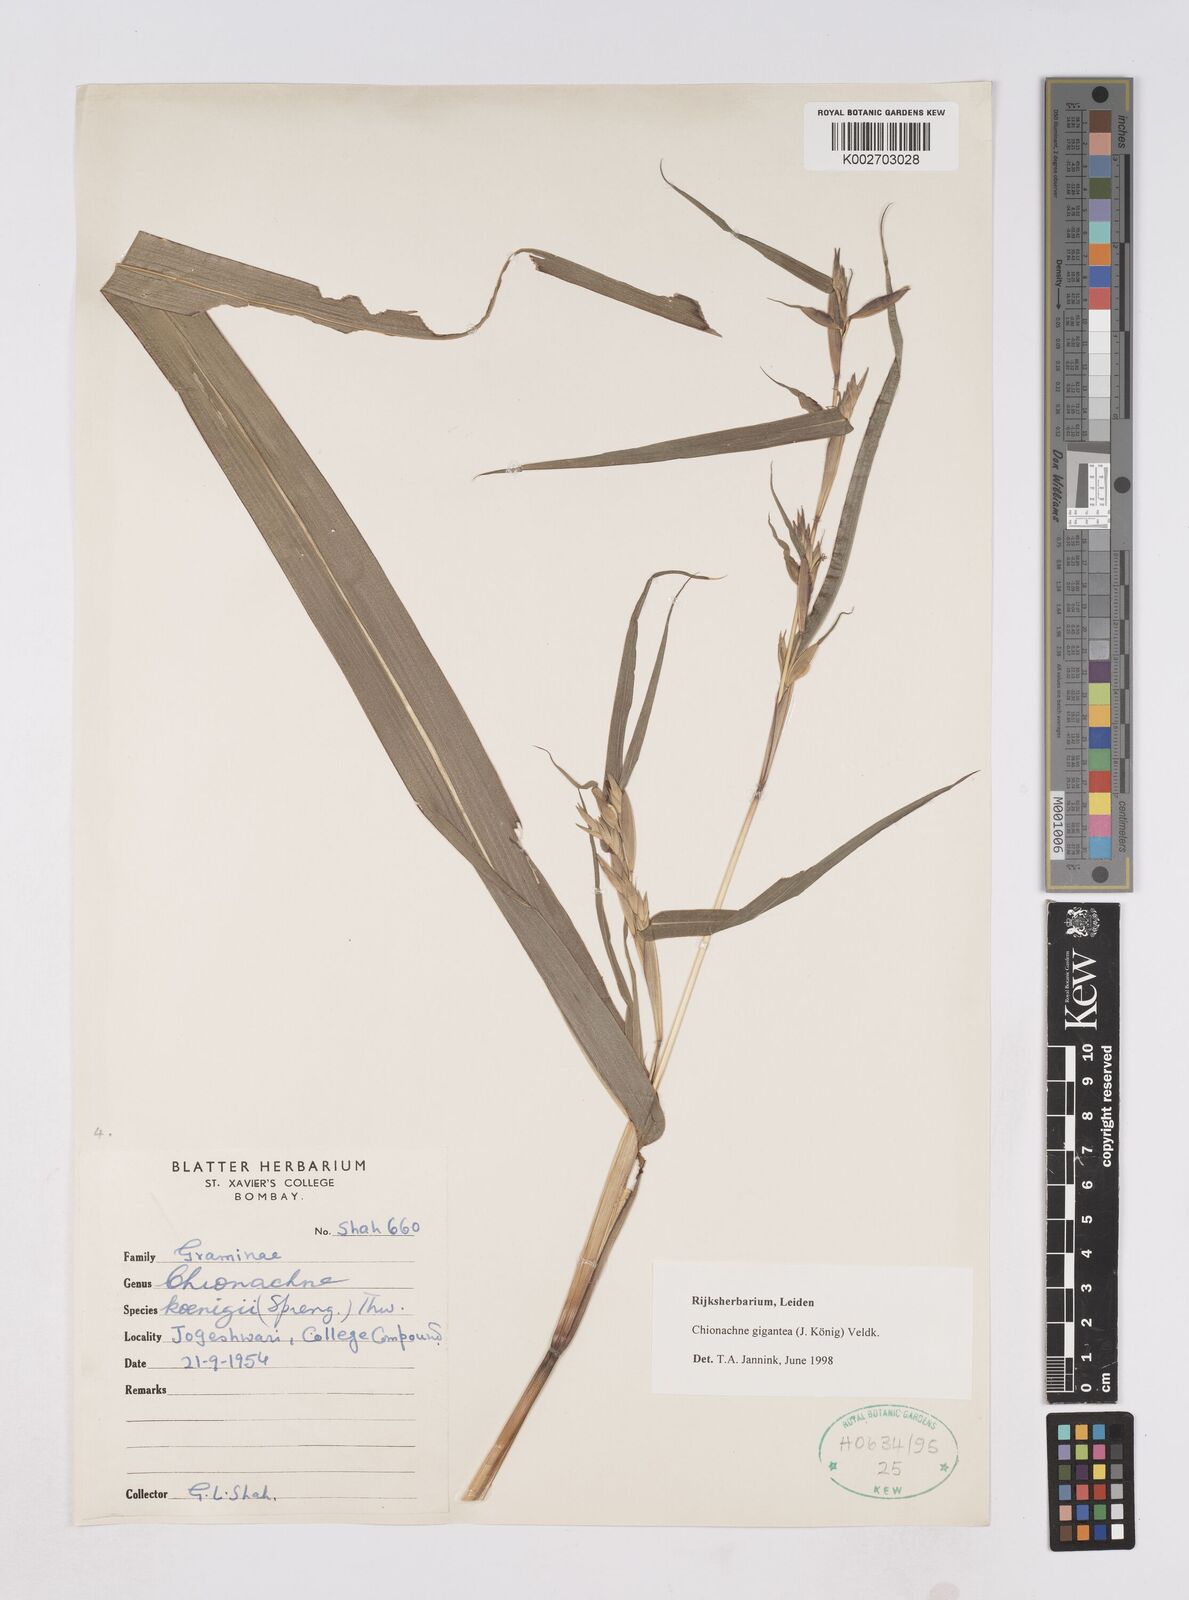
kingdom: Plantae
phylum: Tracheophyta
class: Liliopsida
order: Poales
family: Poaceae
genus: Polytoca
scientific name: Polytoca gigantea
